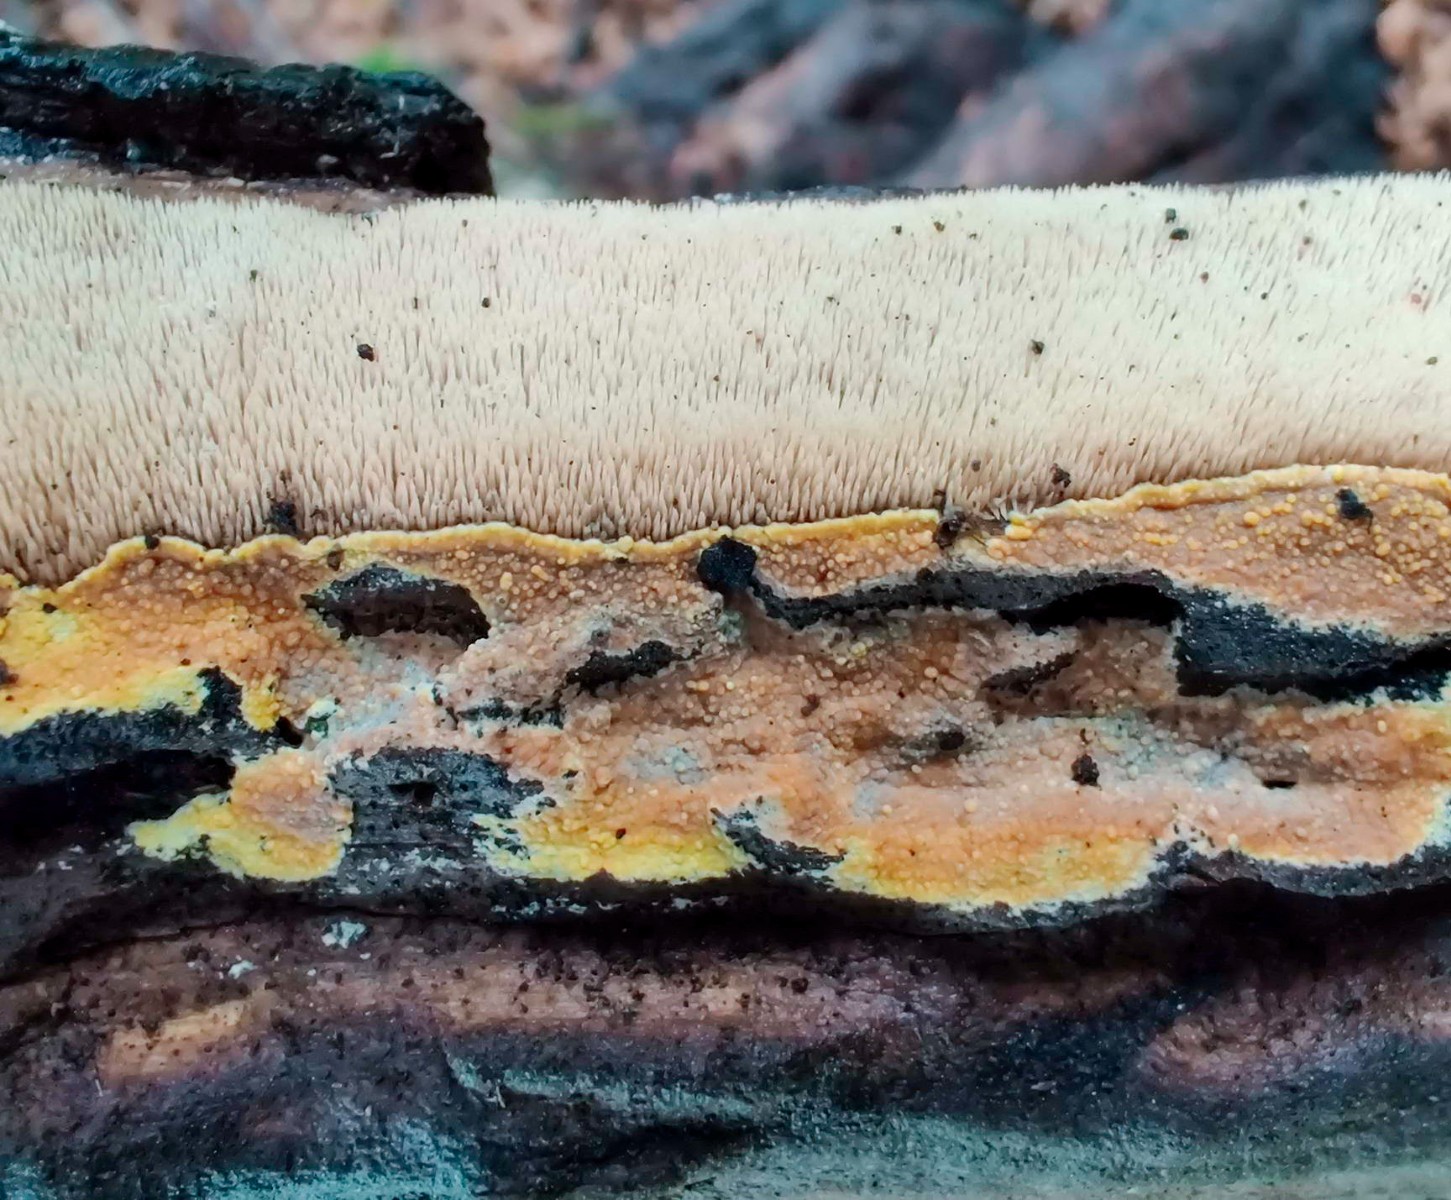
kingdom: Fungi
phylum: Basidiomycota
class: Agaricomycetes
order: Polyporales
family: Meruliaceae
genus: Phlebiodontia
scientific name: Phlebiodontia subochracea
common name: svovl-åresvamp
